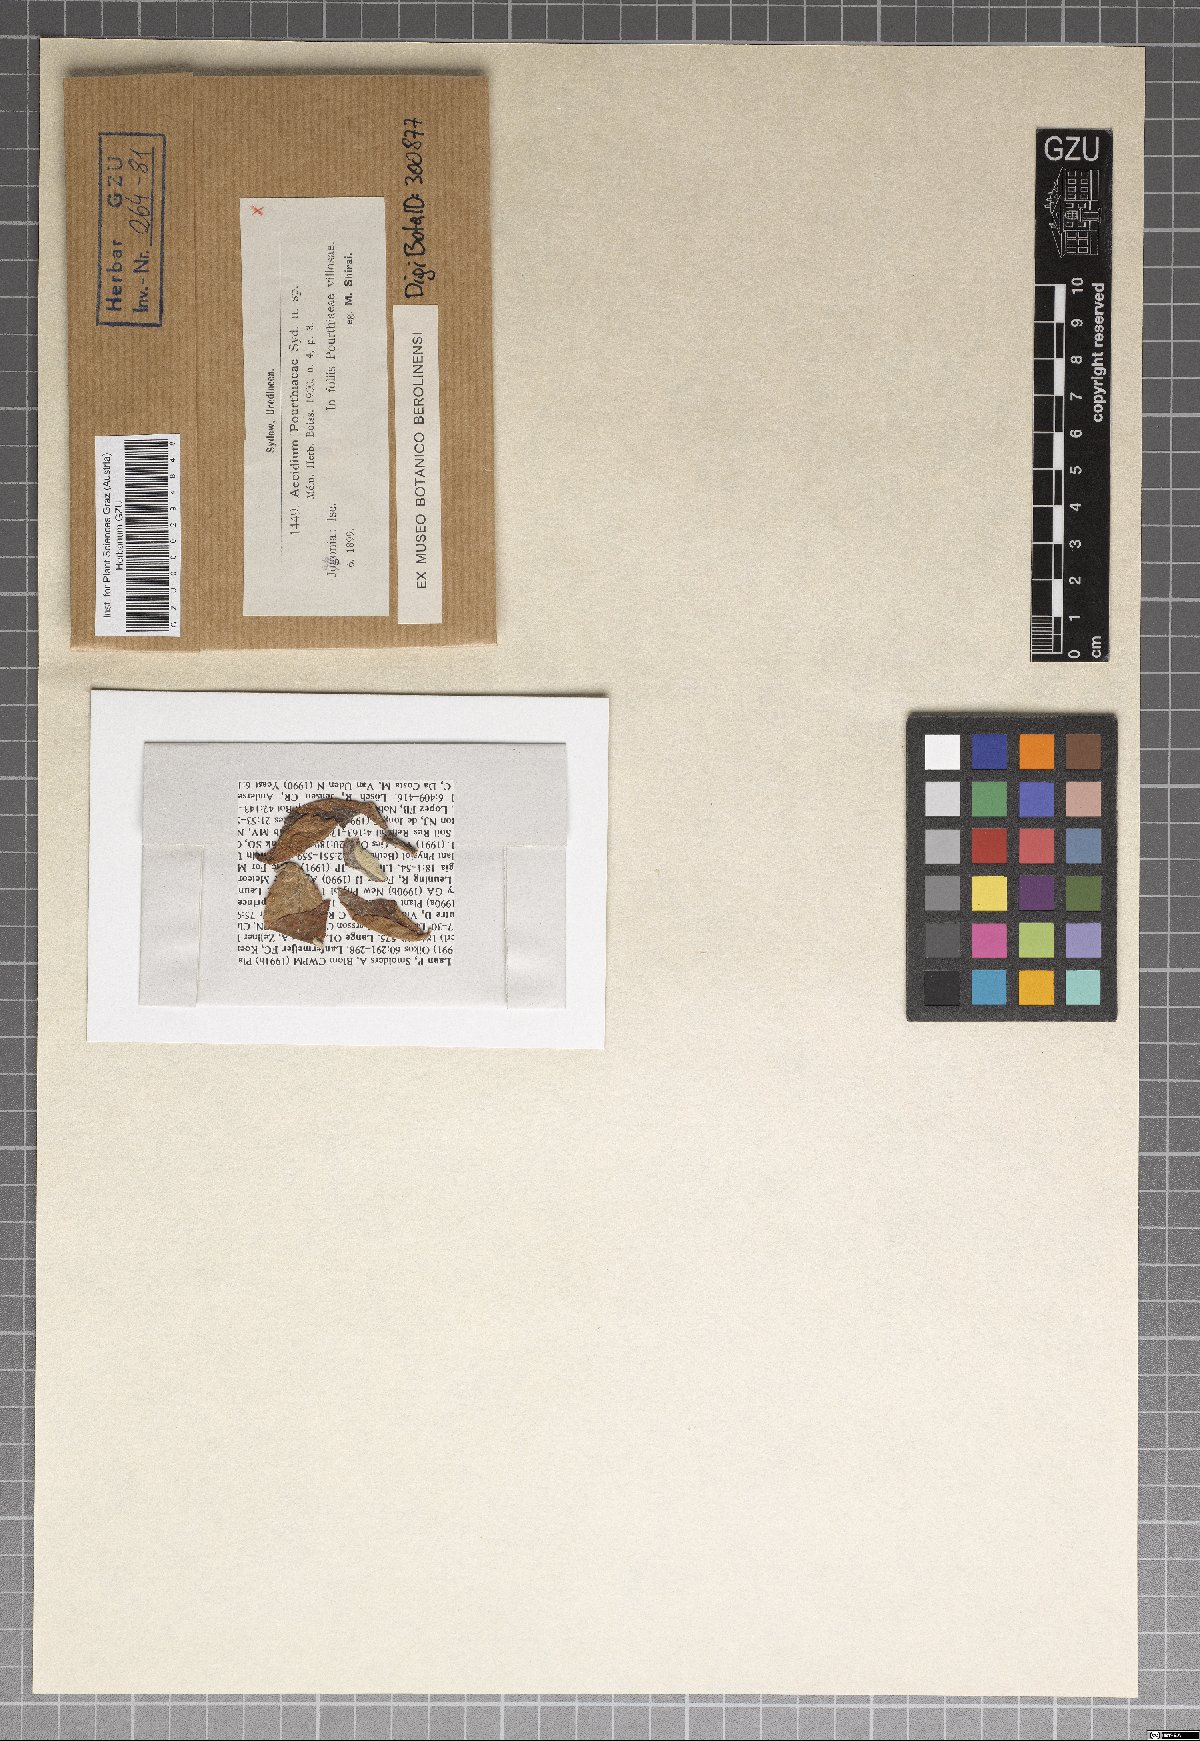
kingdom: Fungi
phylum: Basidiomycota
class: Pucciniomycetes
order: Pucciniales
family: Gymnosporangiaceae
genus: Roestelia
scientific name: Roestelia pourthiaeae
